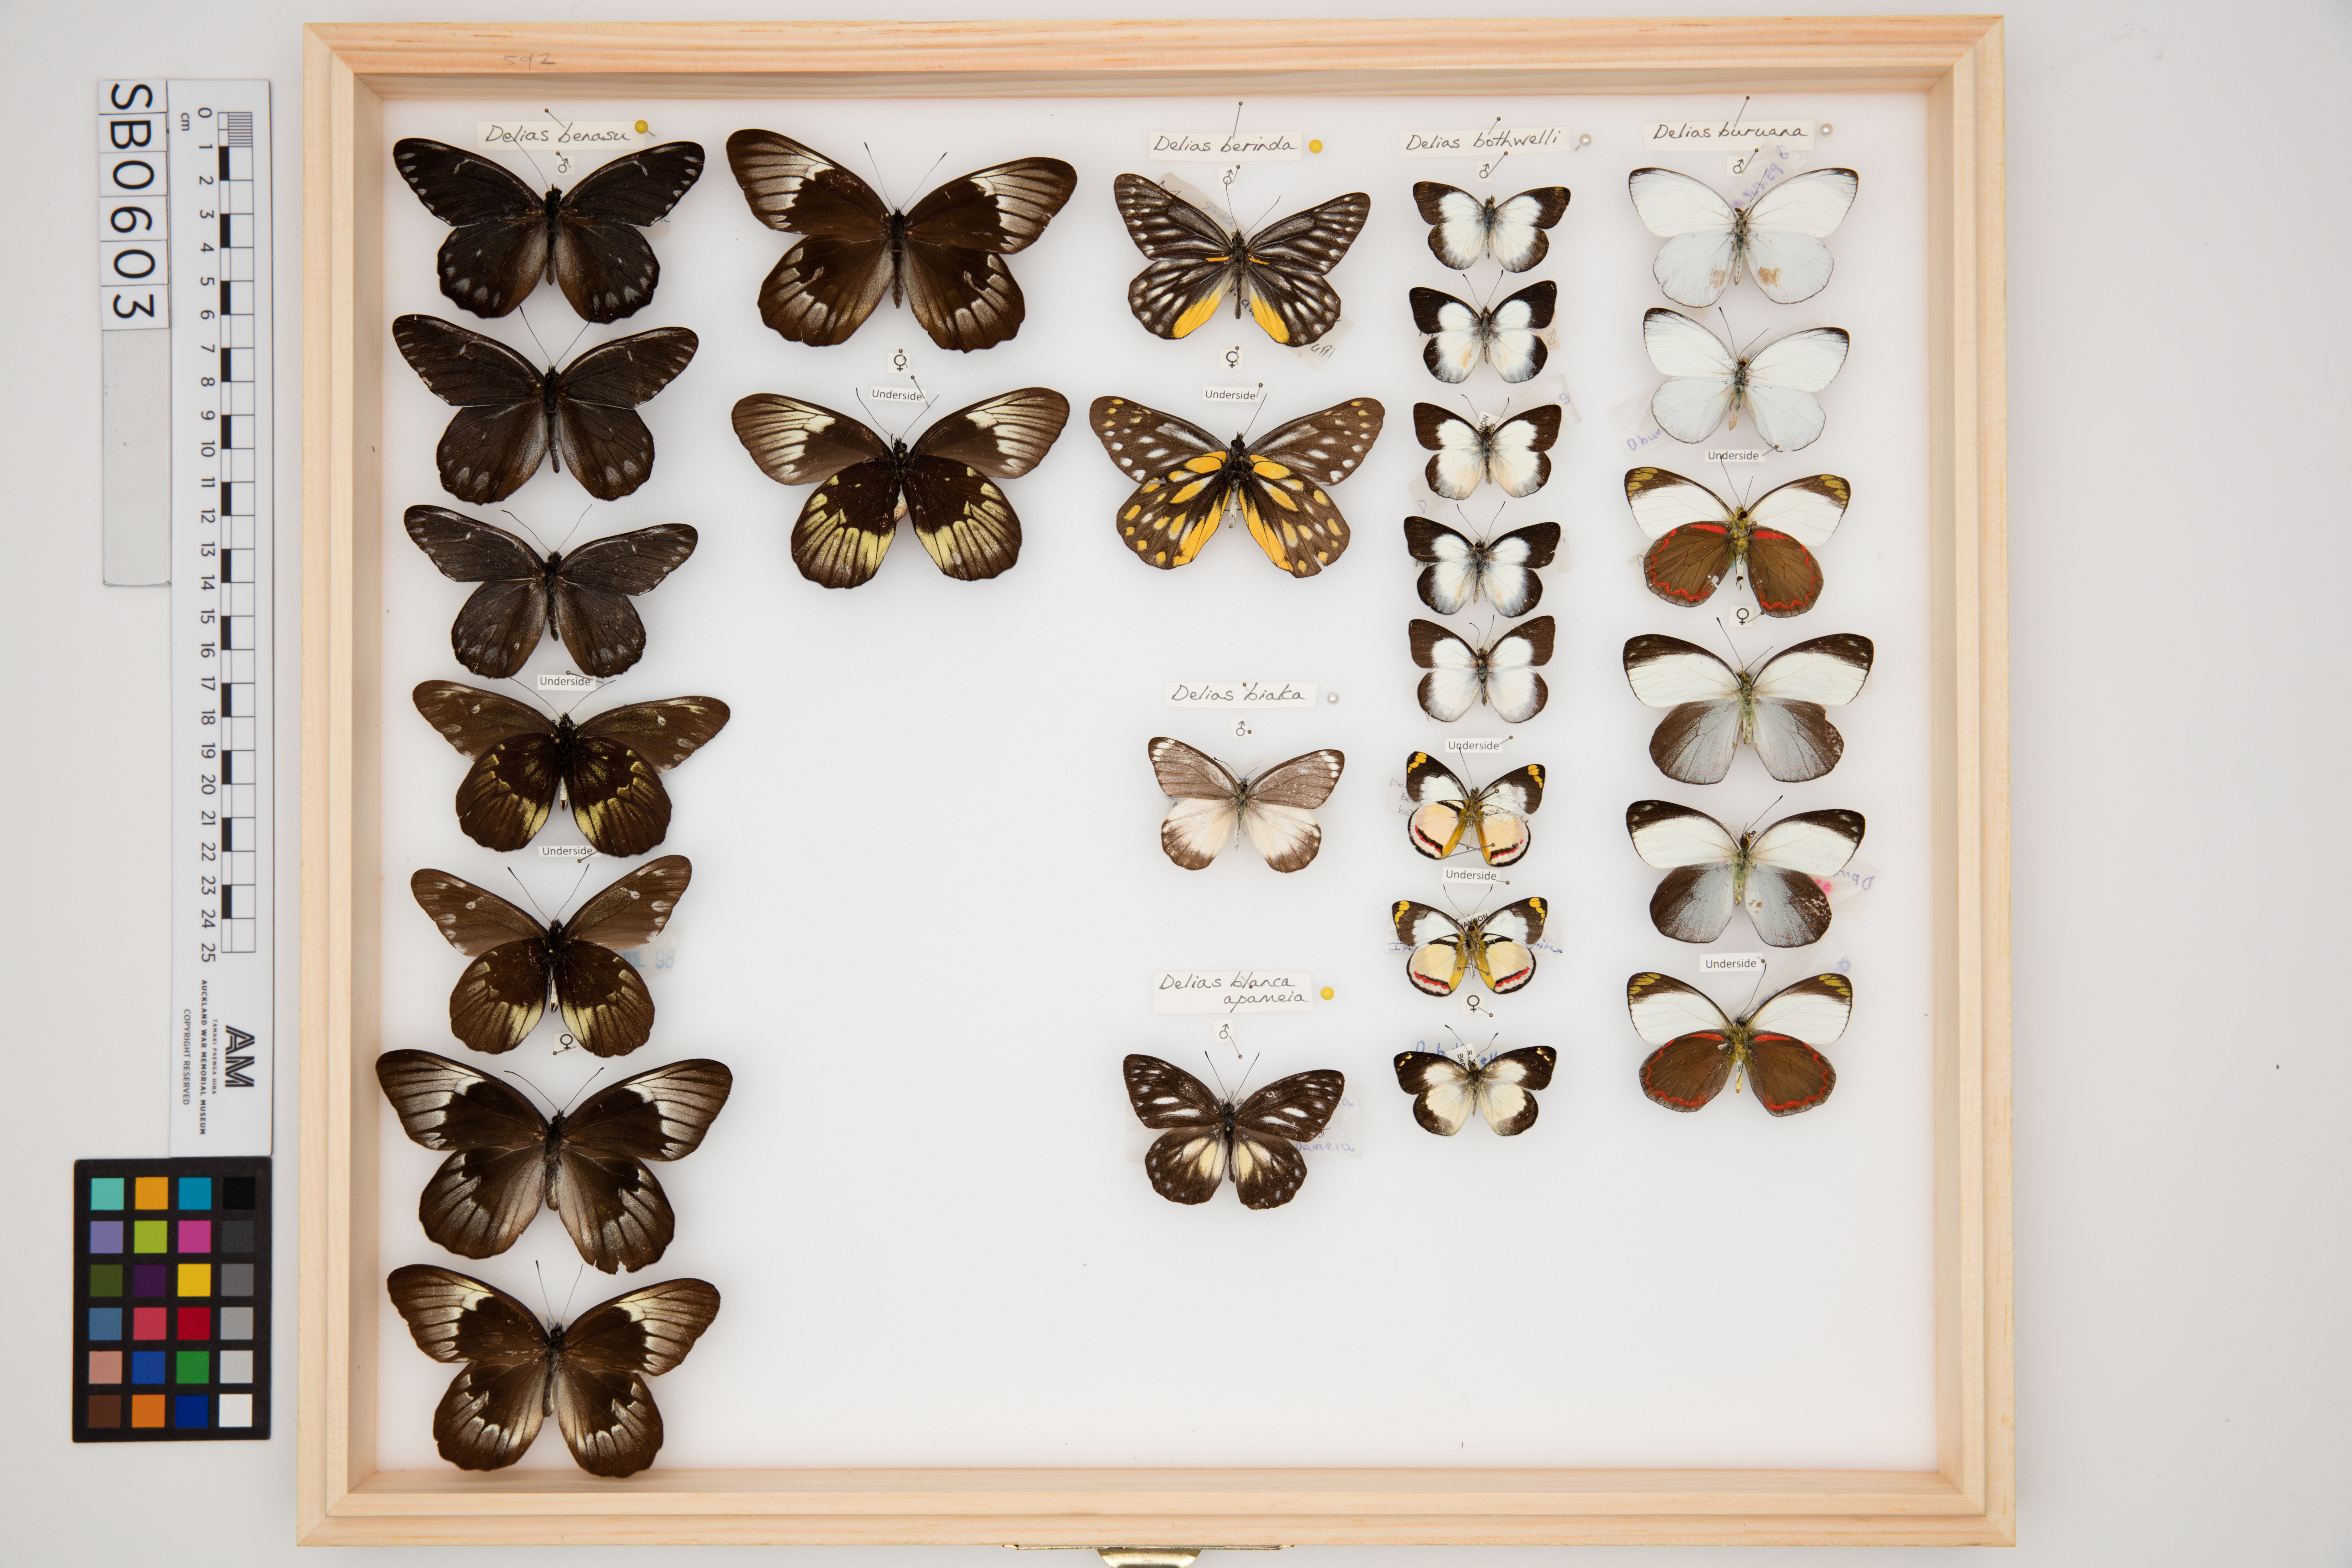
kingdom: Animalia
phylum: Arthropoda
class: Insecta
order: Lepidoptera
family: Pieridae
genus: Delias
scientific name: Delias bothwelli
